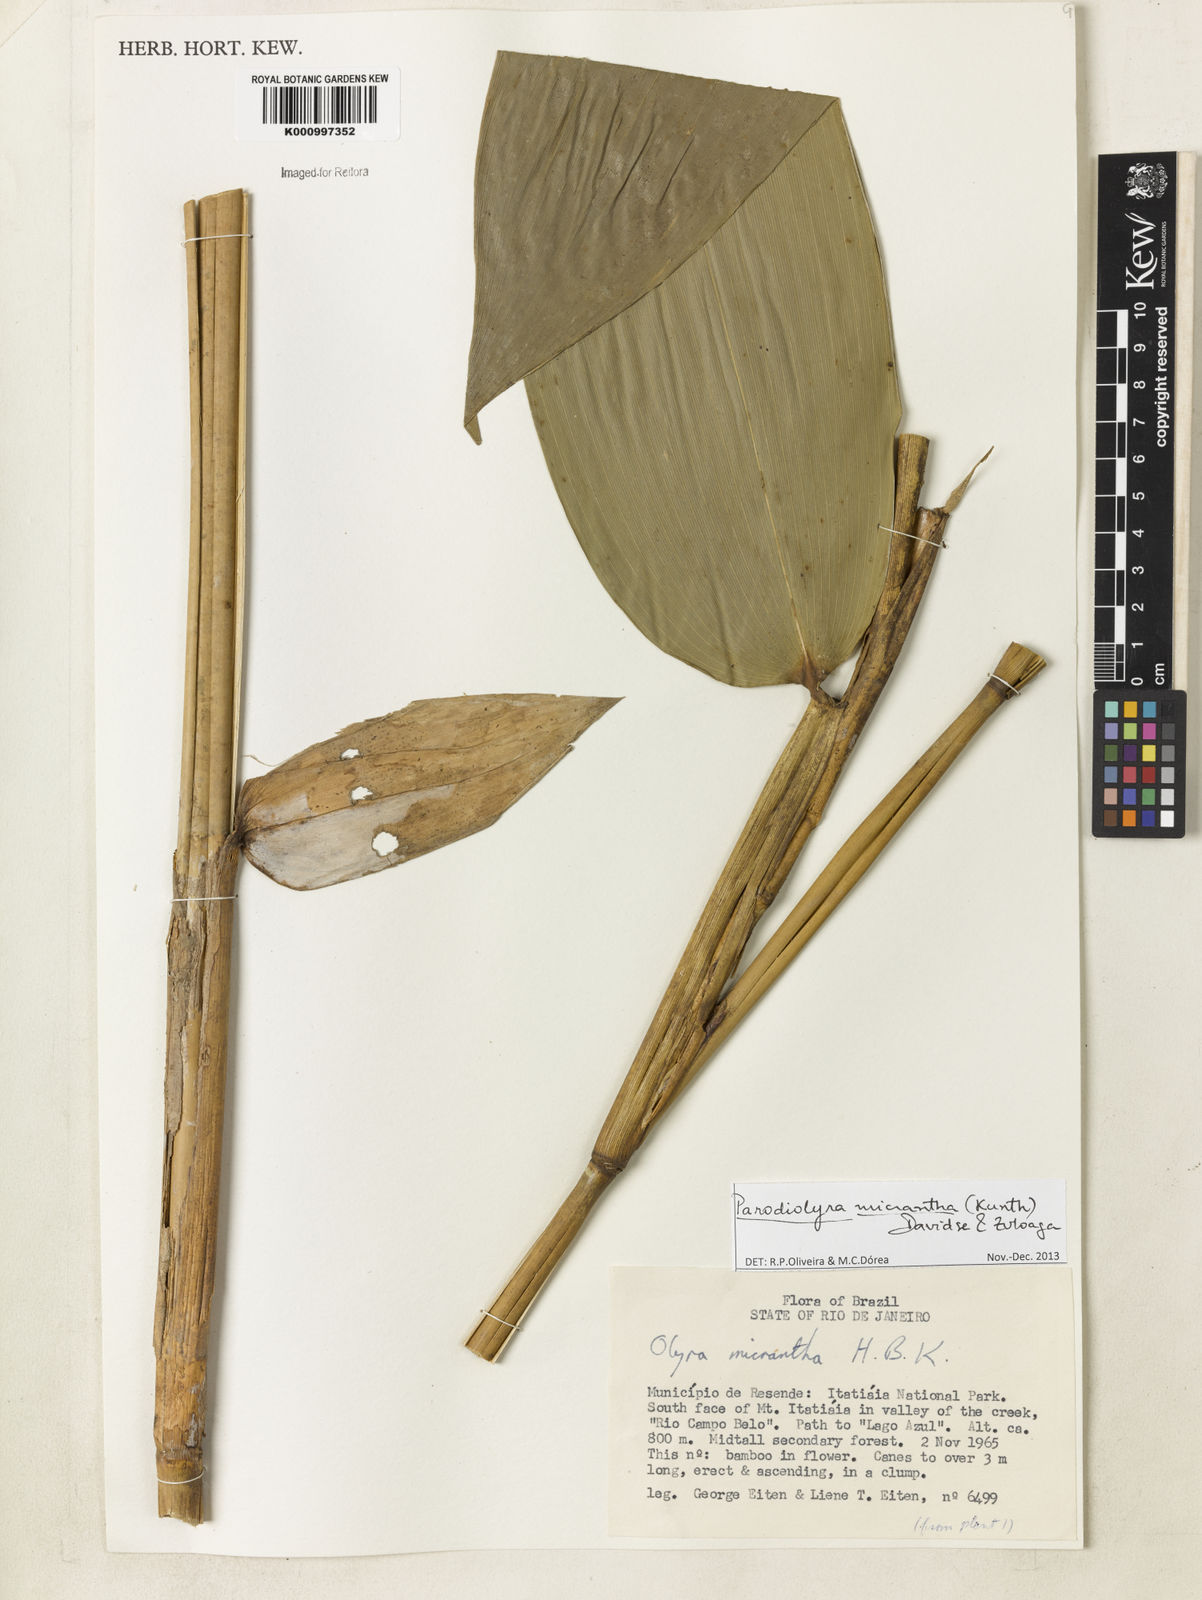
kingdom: Plantae
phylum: Tracheophyta
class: Liliopsida
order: Poales
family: Poaceae
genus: Taquara
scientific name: Taquara micrantha
